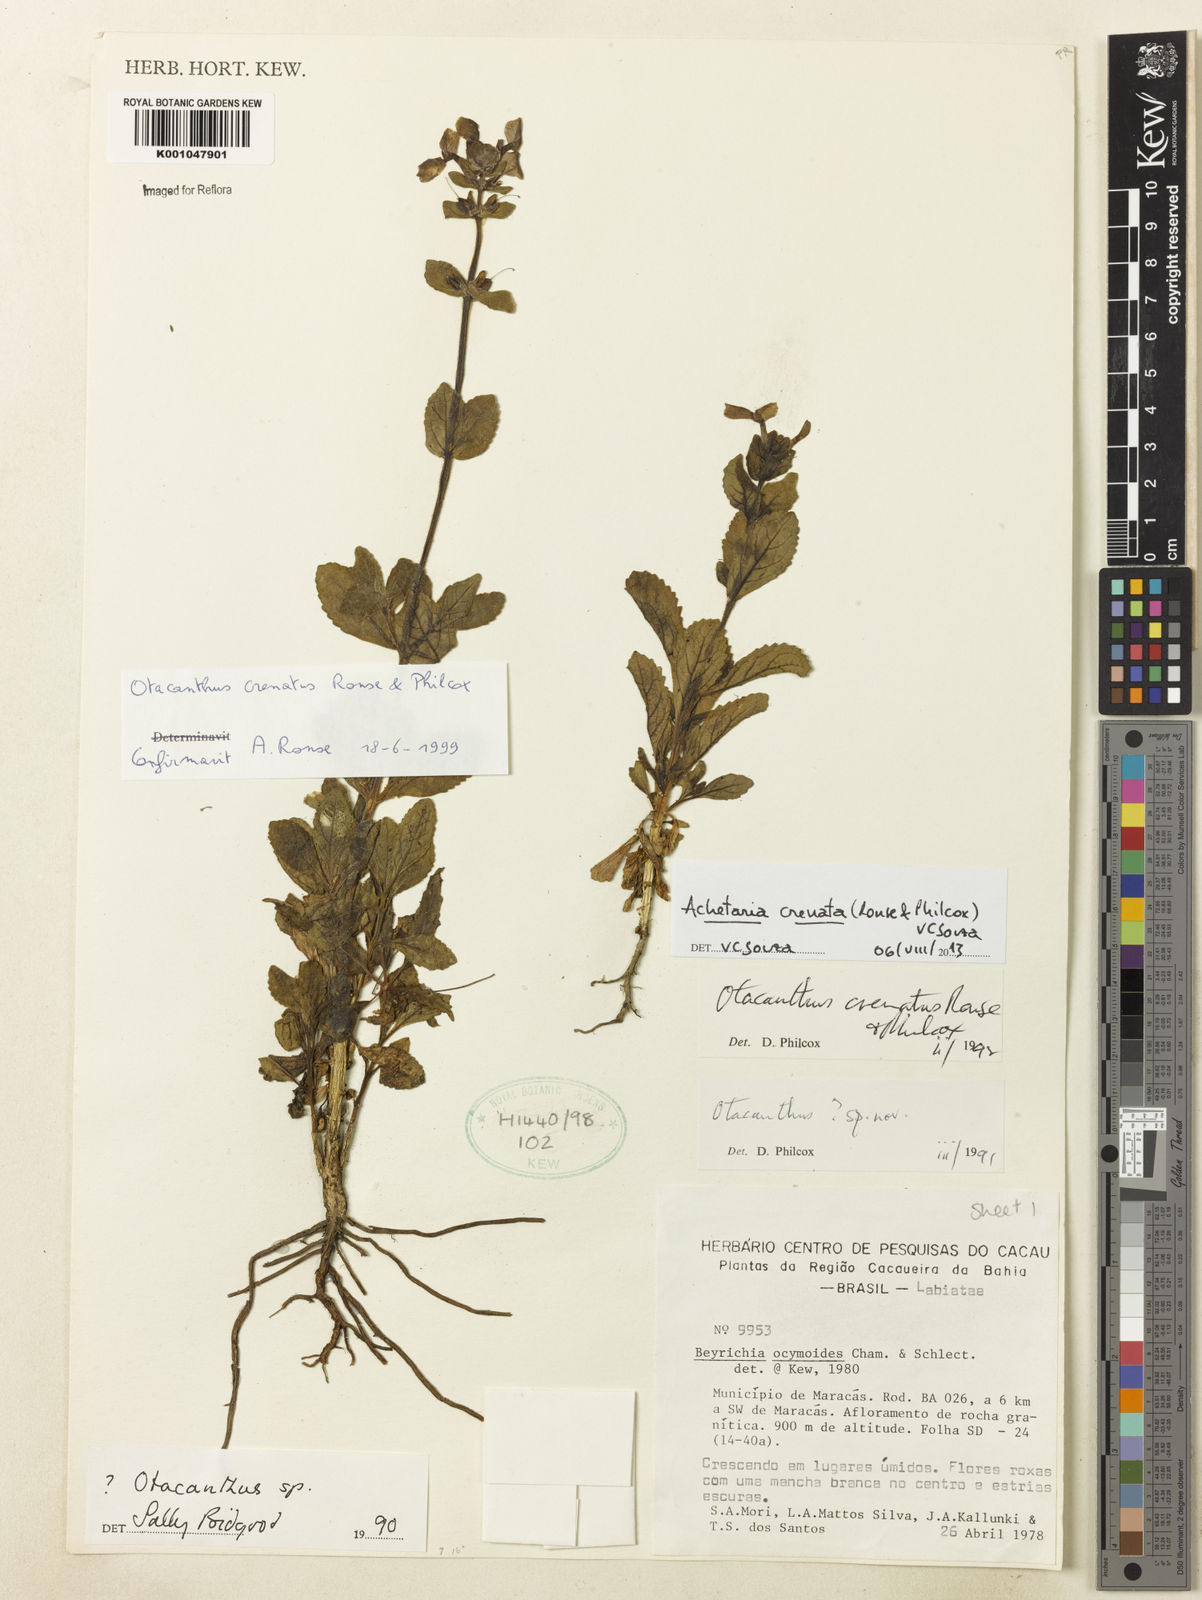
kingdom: Plantae
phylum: Tracheophyta
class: Magnoliopsida
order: Lamiales
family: Plantaginaceae
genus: Matourea
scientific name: Matourea crenata
